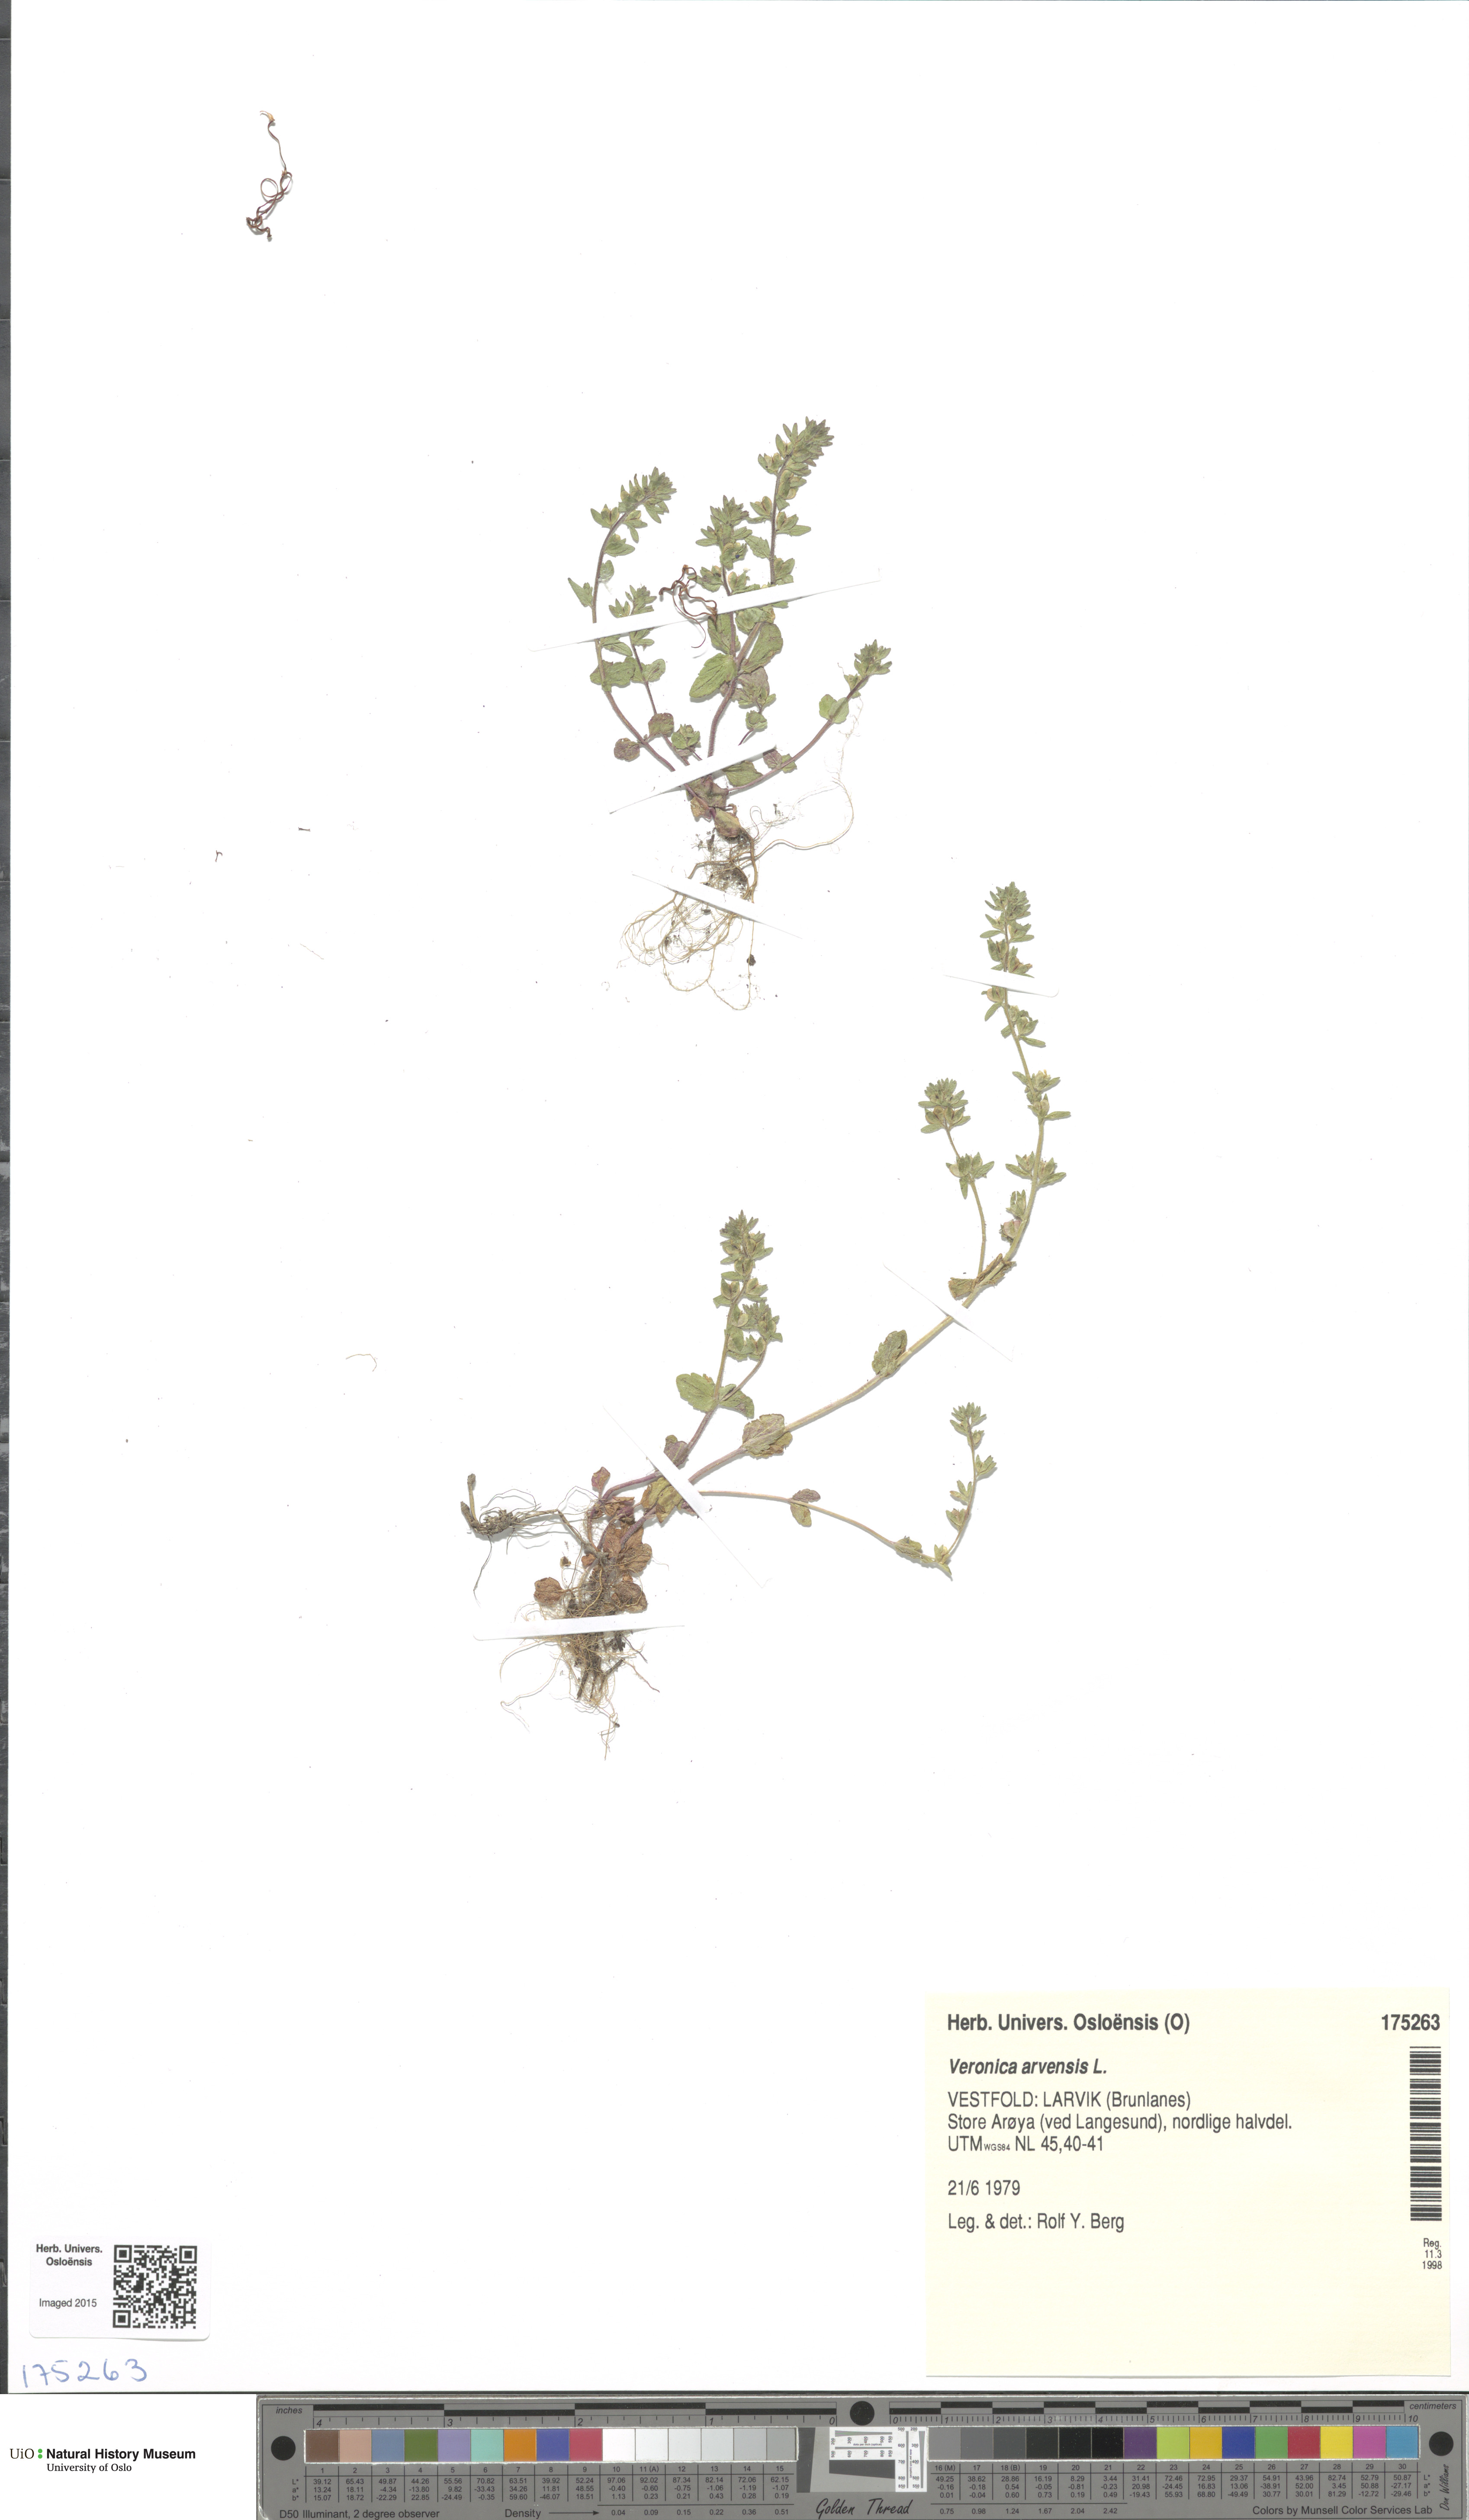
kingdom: Plantae
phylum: Tracheophyta
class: Magnoliopsida
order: Lamiales
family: Plantaginaceae
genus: Veronica
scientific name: Veronica arvensis
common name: Corn speedwell
